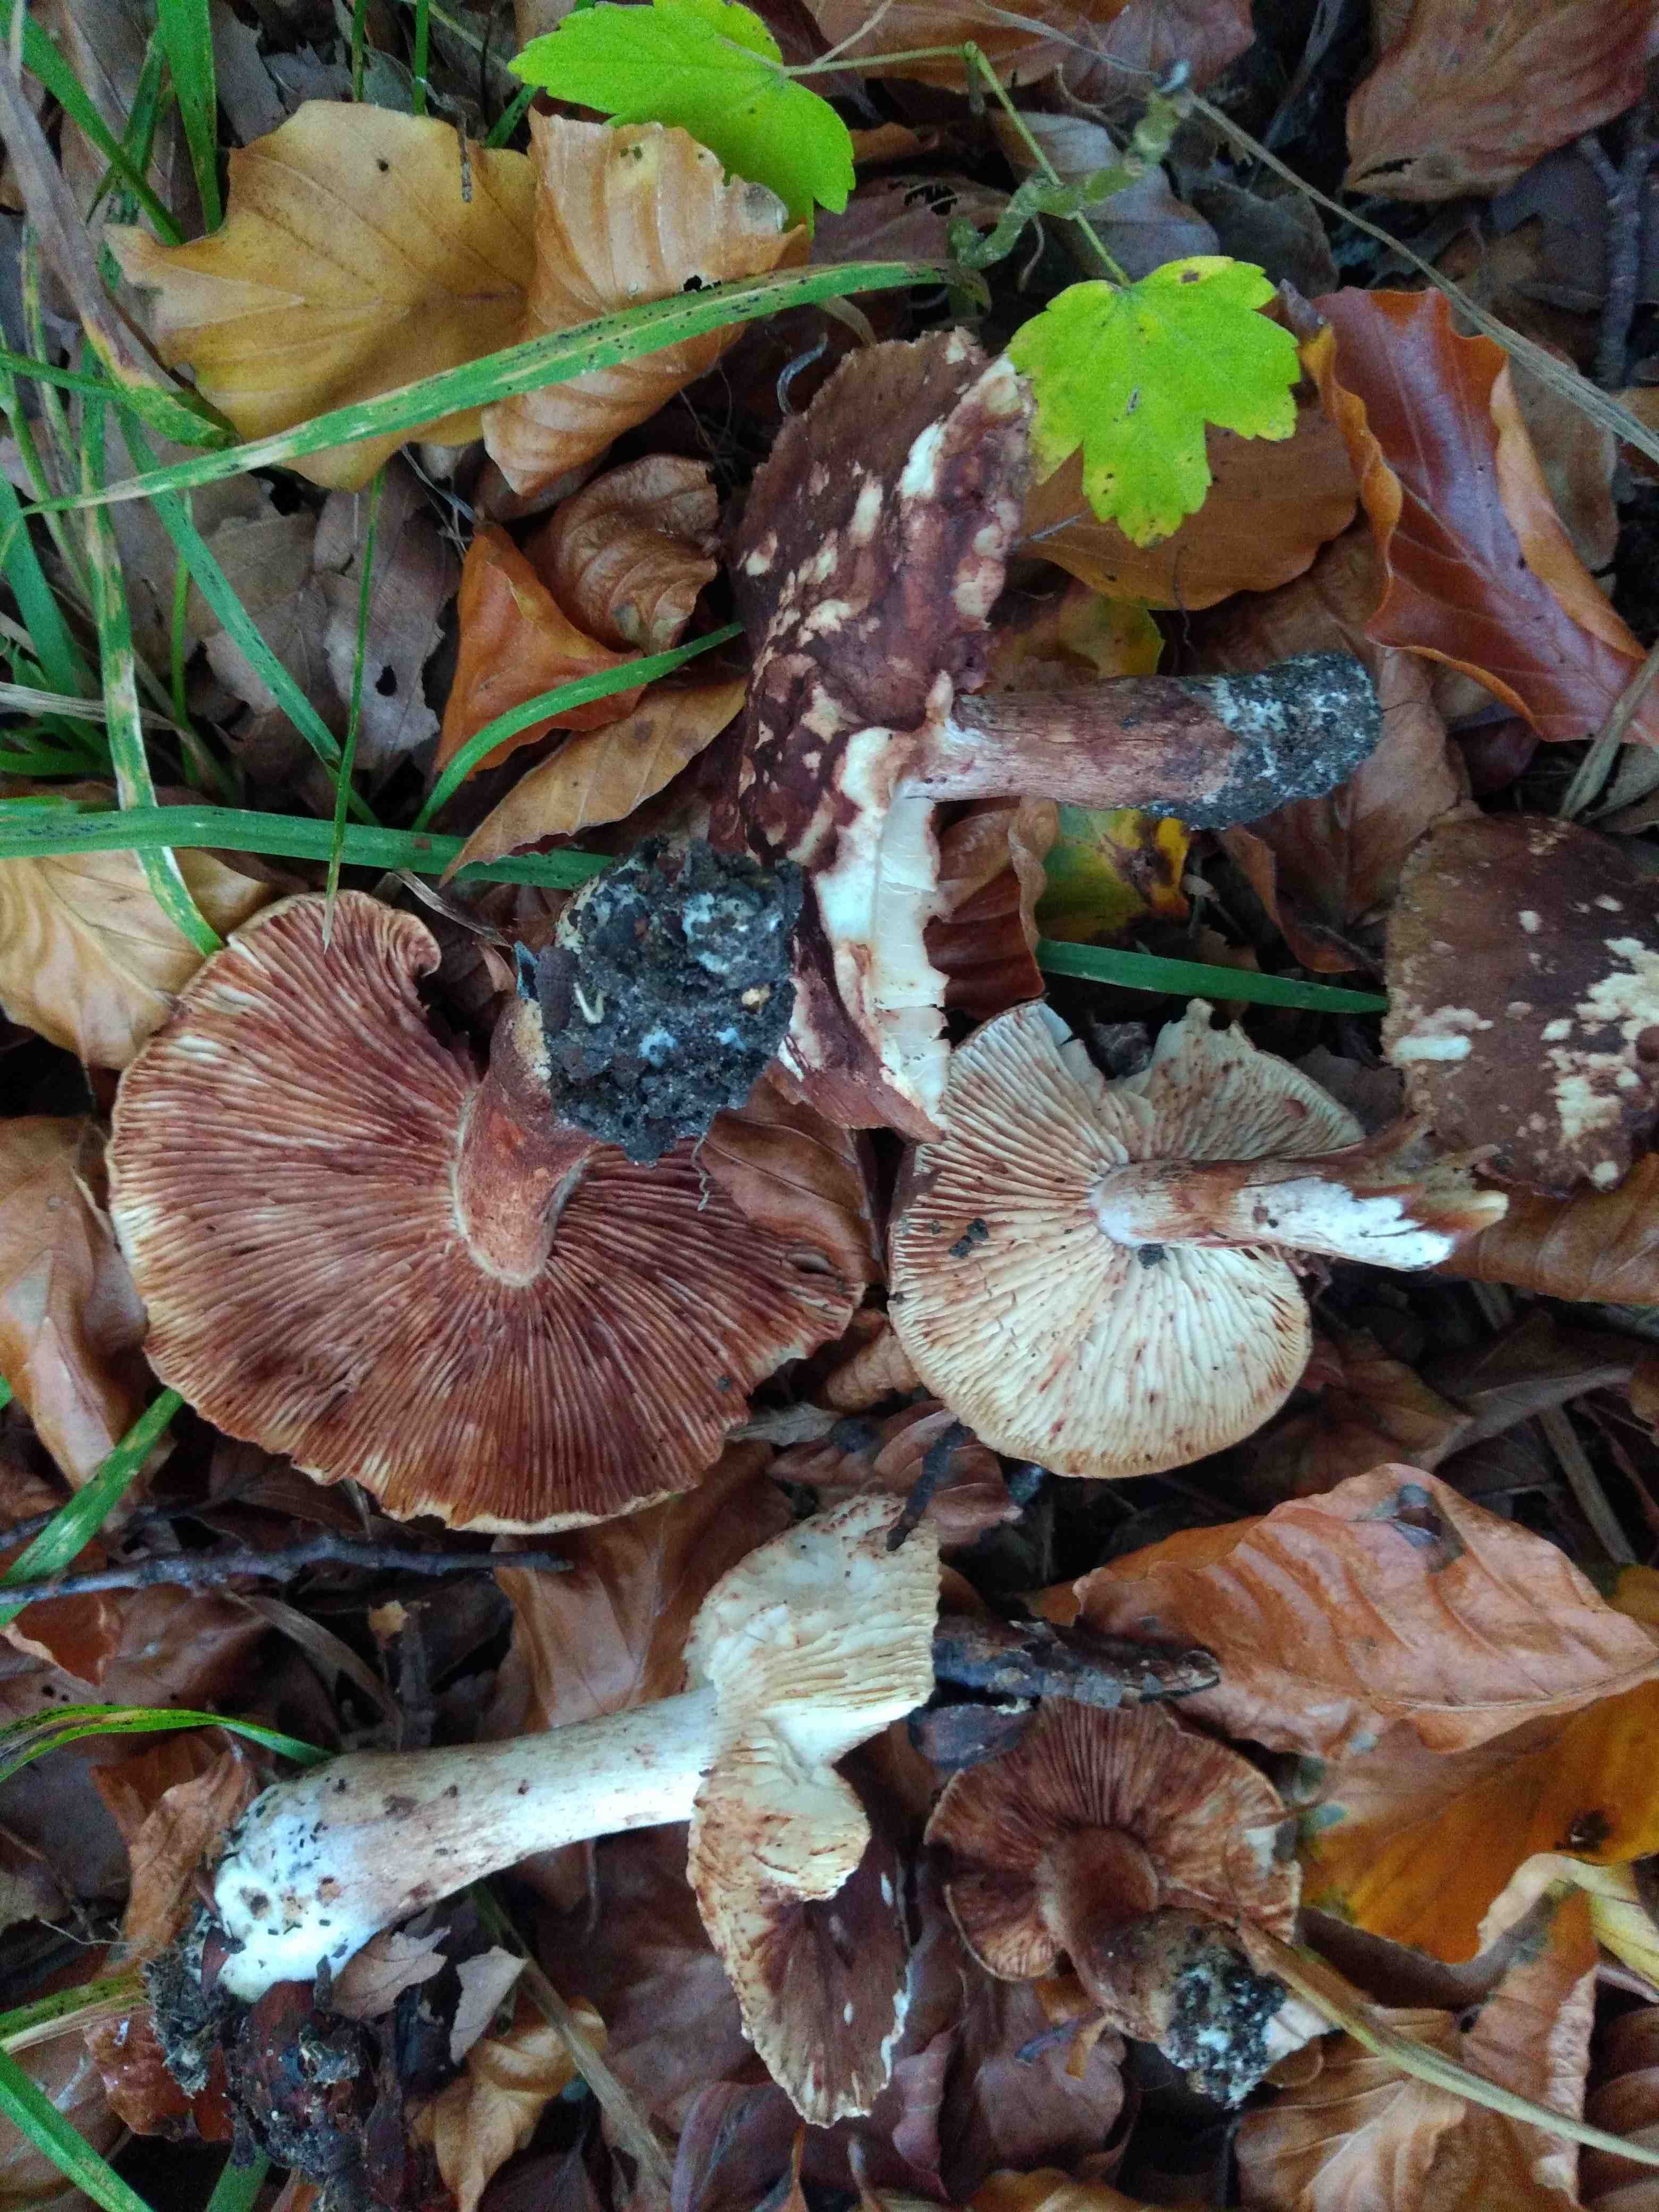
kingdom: Fungi
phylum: Basidiomycota
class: Agaricomycetes
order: Agaricales
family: Tricholomataceae
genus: Tricholoma
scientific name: Tricholoma ustale
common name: sveden ridderhat
